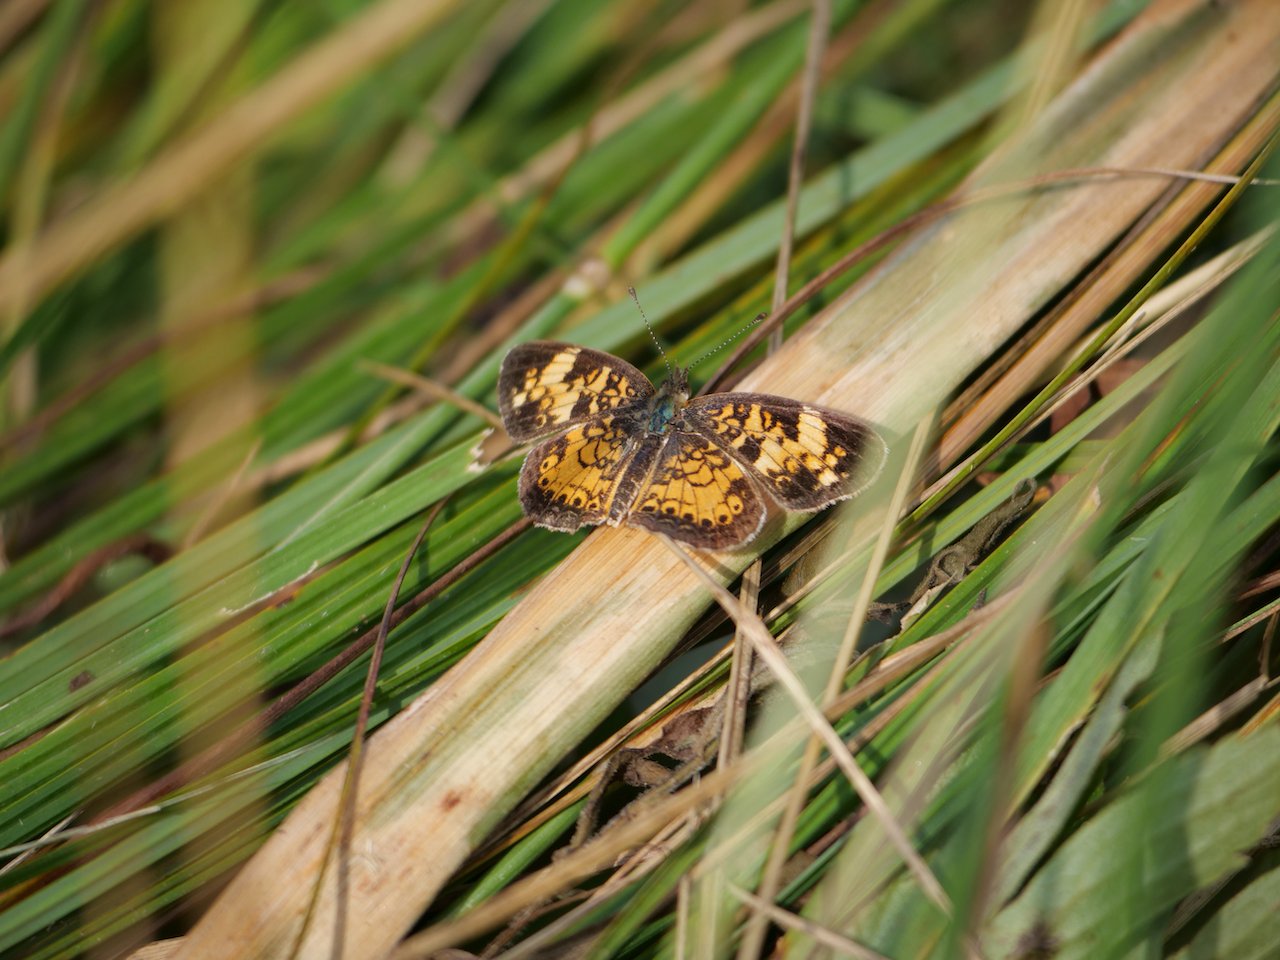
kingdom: Animalia
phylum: Arthropoda
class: Insecta
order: Lepidoptera
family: Nymphalidae
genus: Phyciodes
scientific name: Phyciodes
